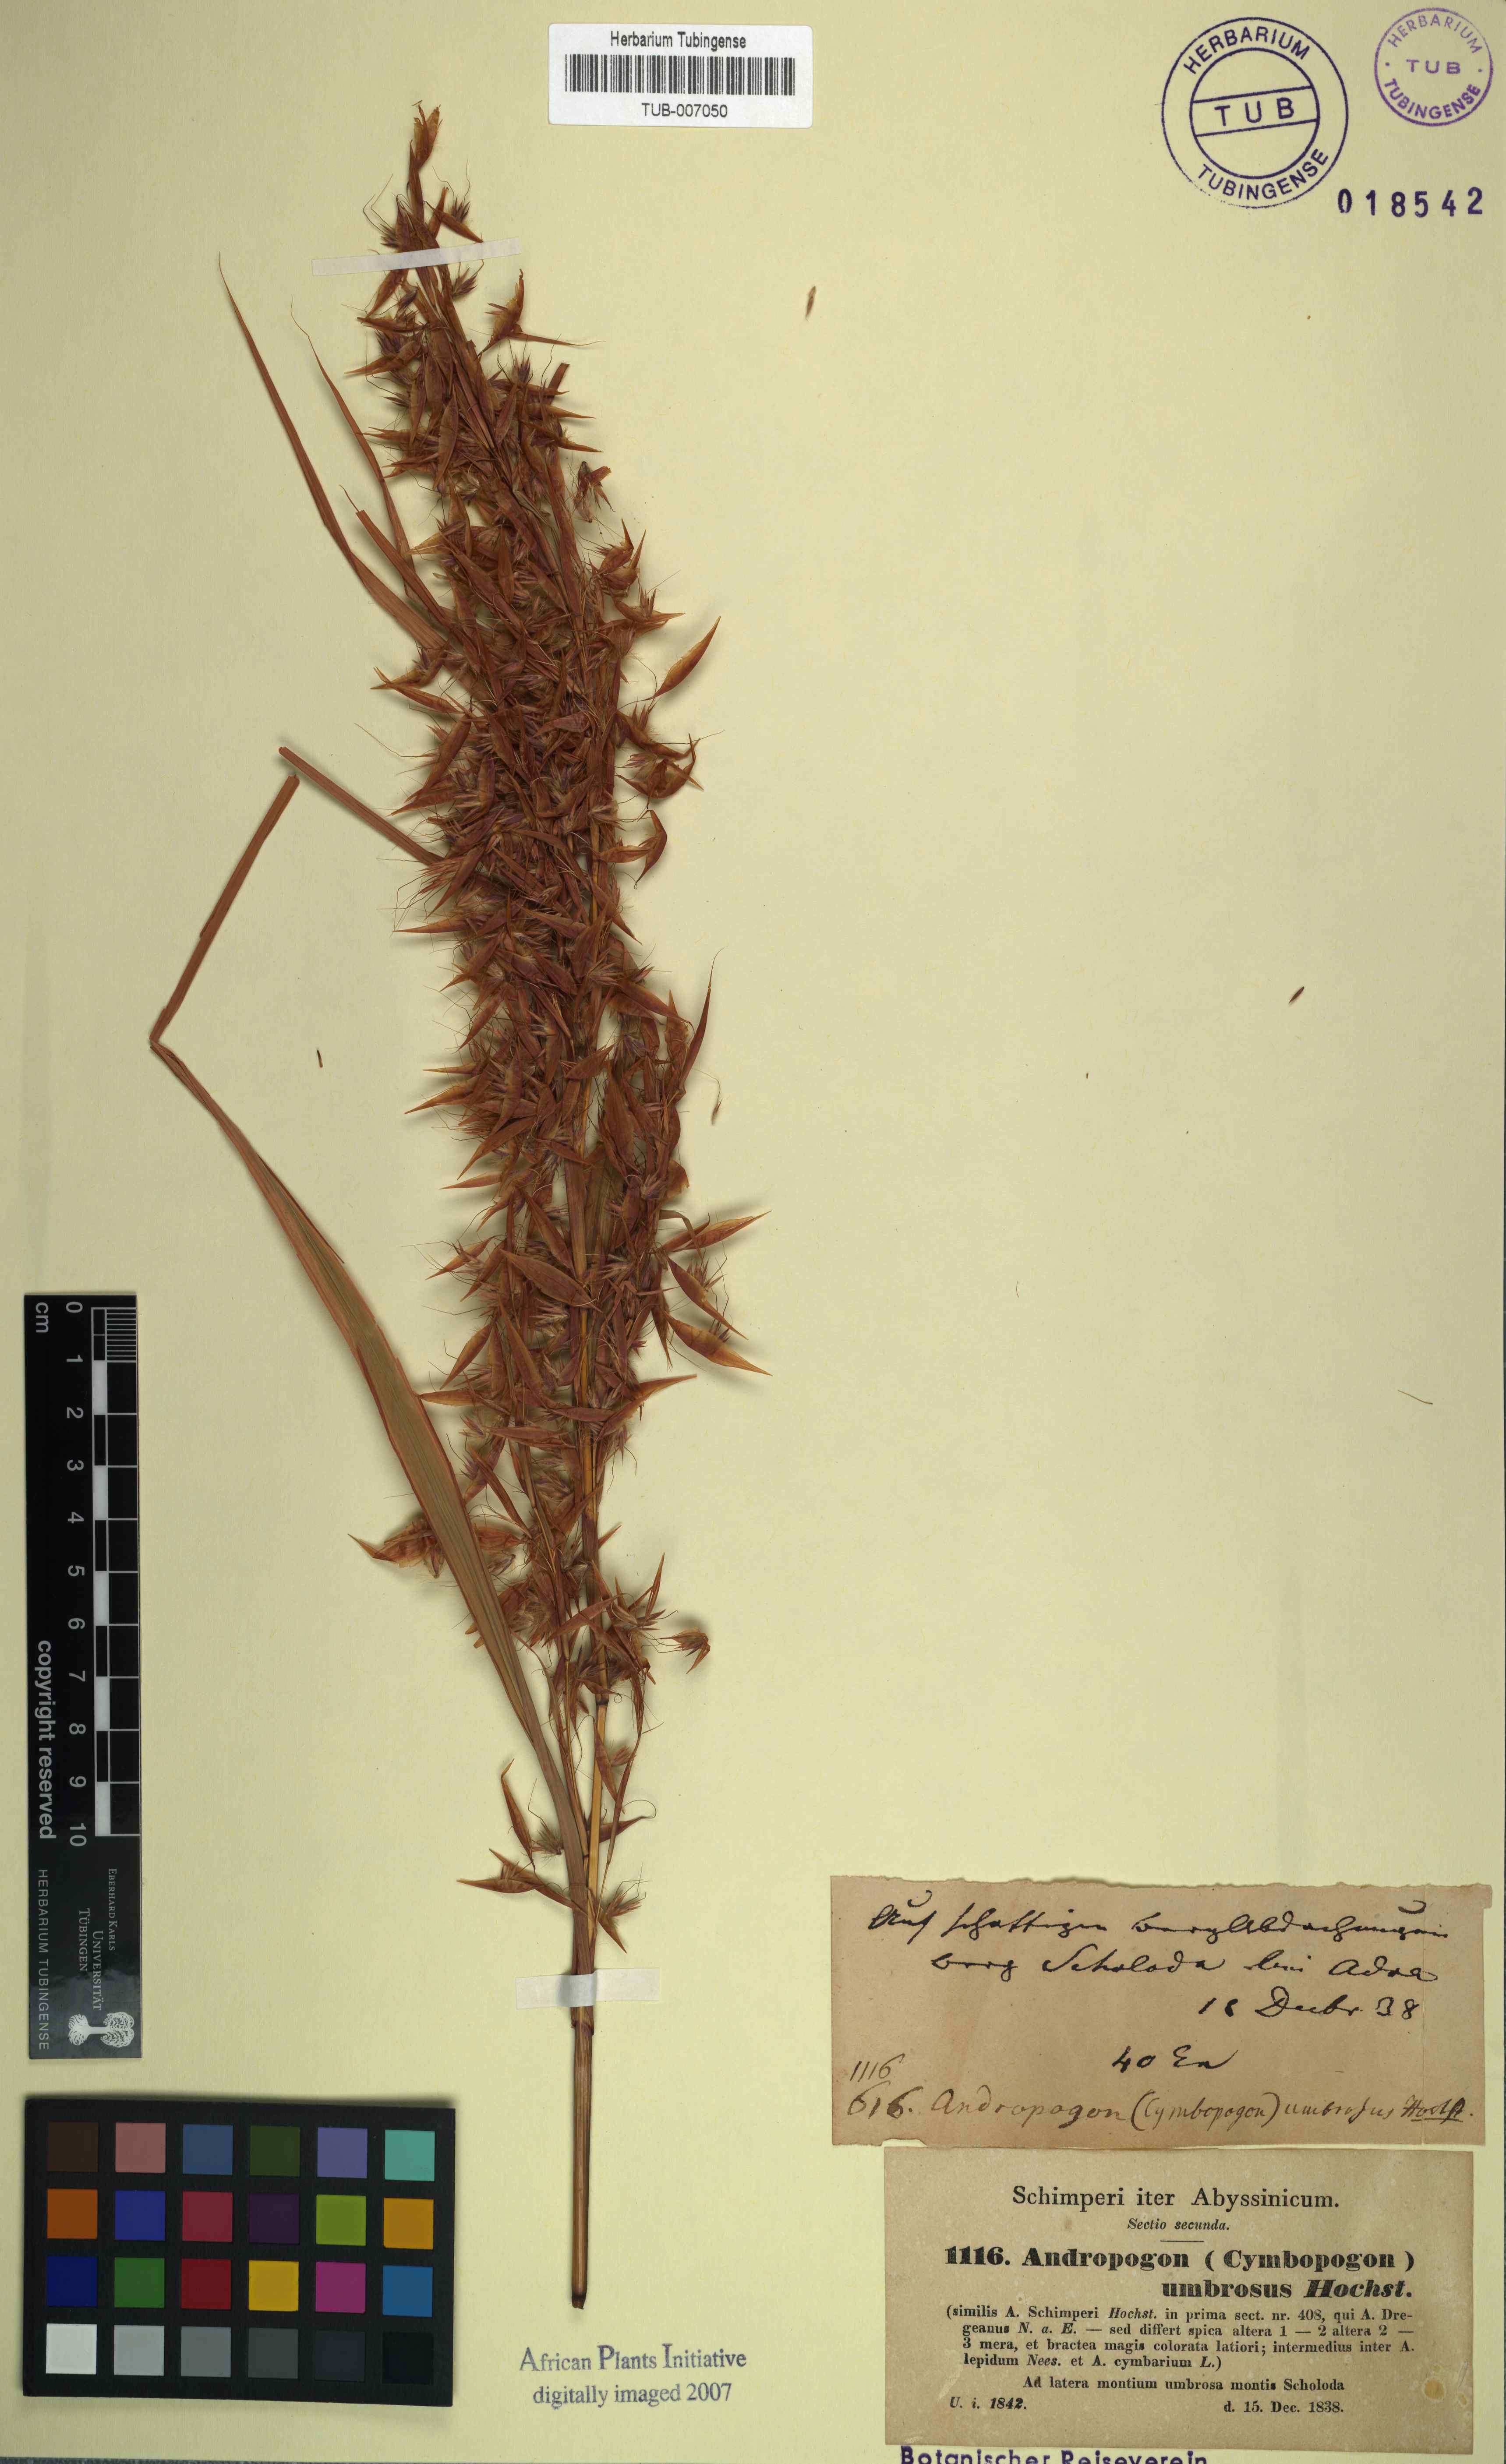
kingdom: Plantae
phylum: Tracheophyta
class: Liliopsida
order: Poales
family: Poaceae
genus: Hyparrhenia
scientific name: Hyparrhenia cymbaria
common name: Boat thatching grass
